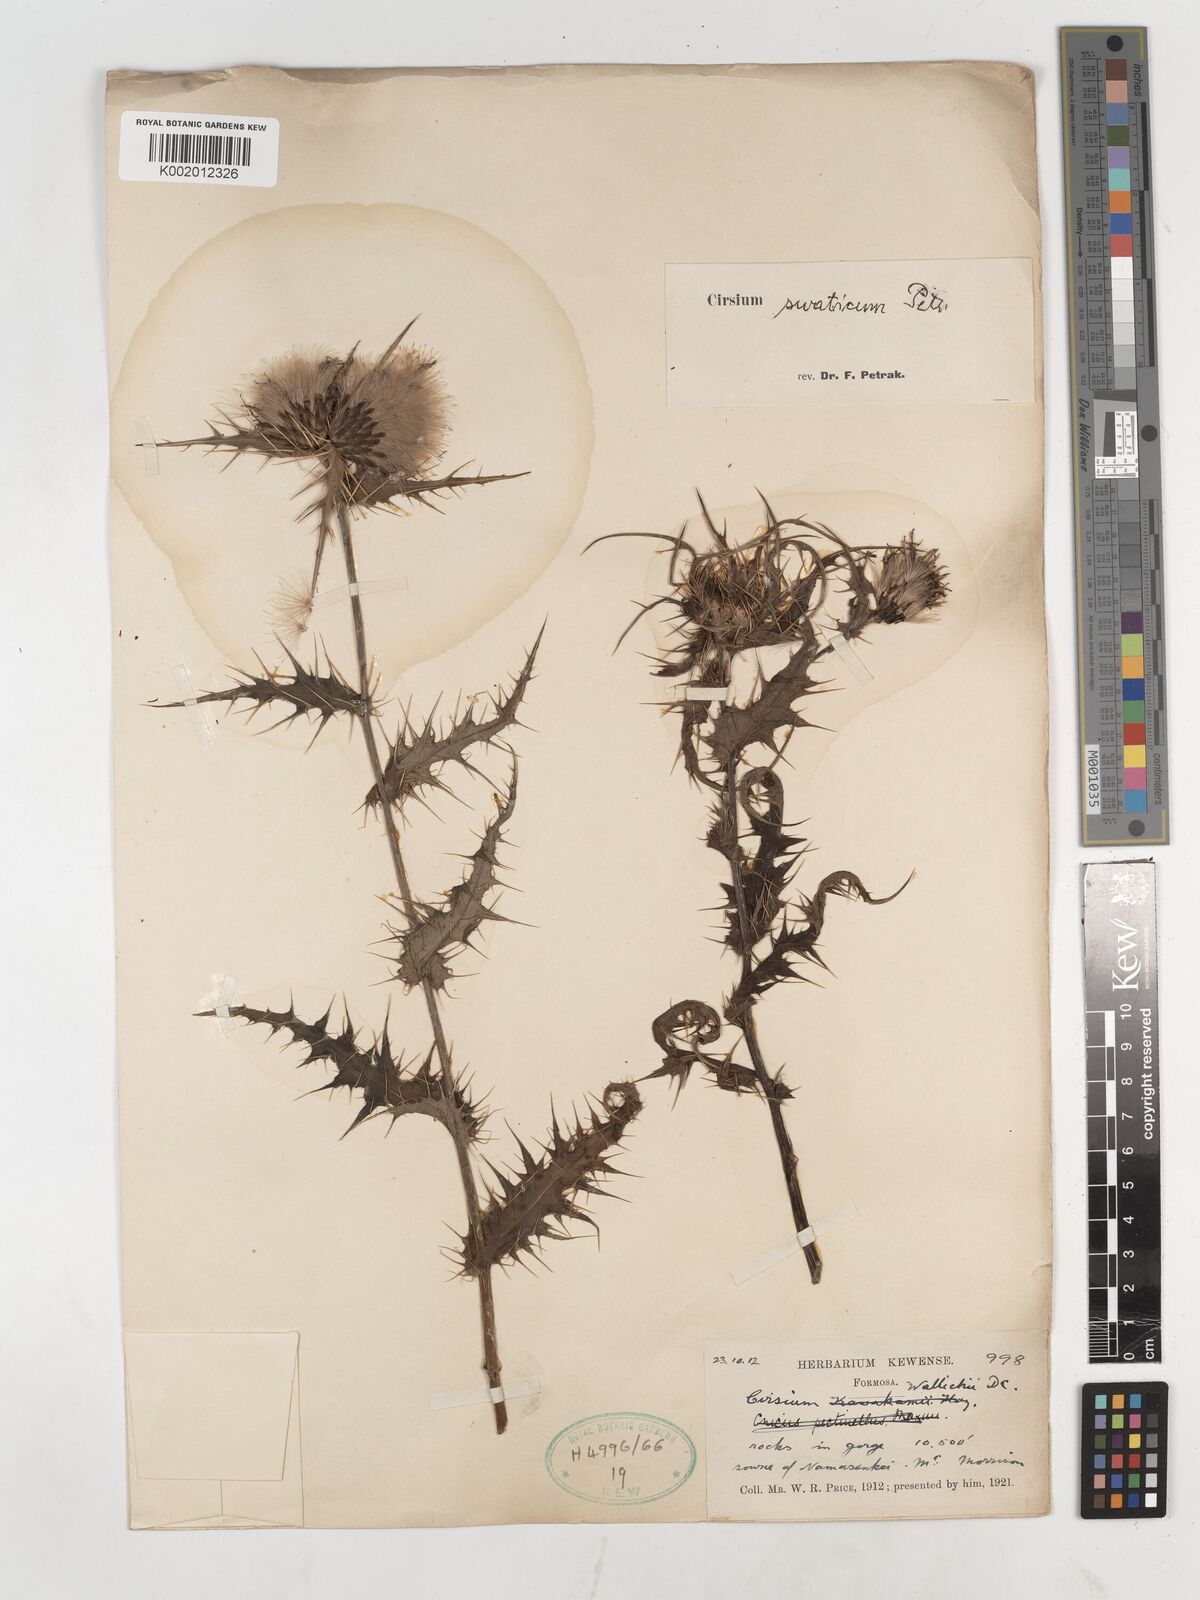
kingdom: Plantae
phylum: Tracheophyta
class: Magnoliopsida
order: Asterales
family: Asteraceae
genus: Cirsium
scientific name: Cirsium swaticum
